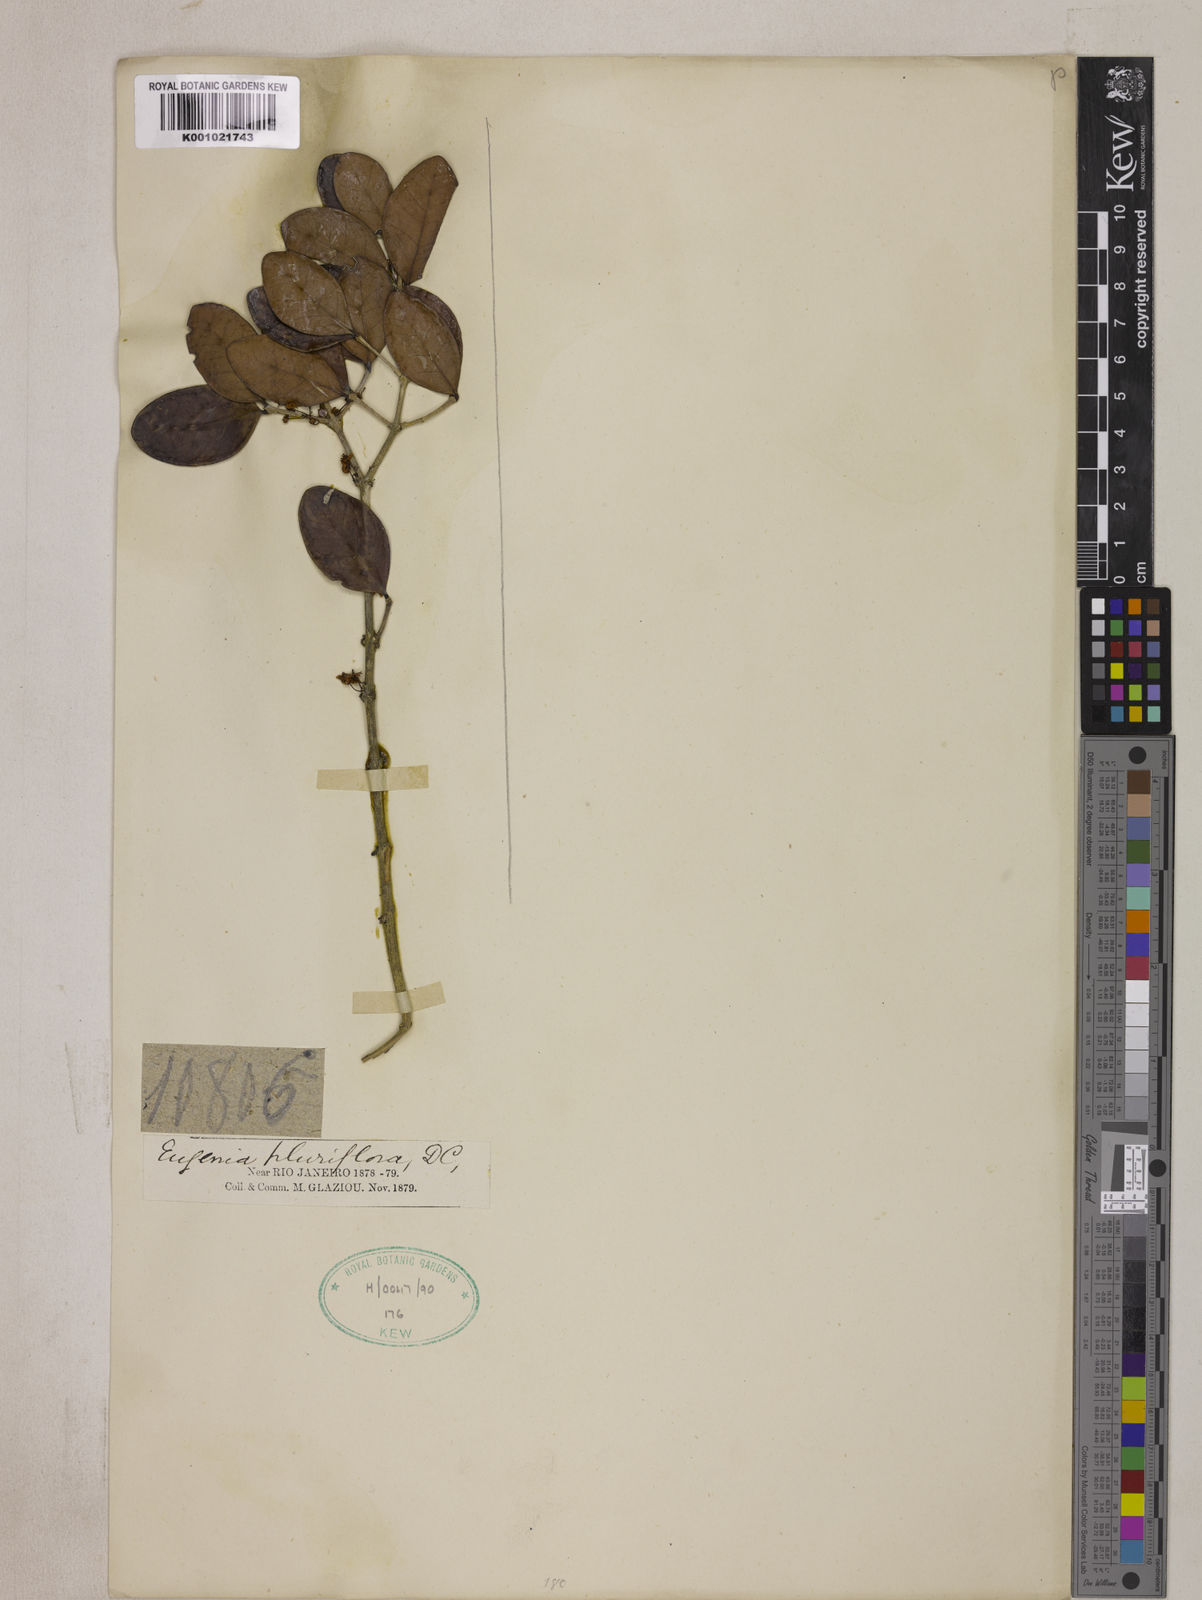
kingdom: Plantae
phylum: Tracheophyta
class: Magnoliopsida
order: Myrtales
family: Myrtaceae
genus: Eugenia
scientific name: Eugenia pluriflora
